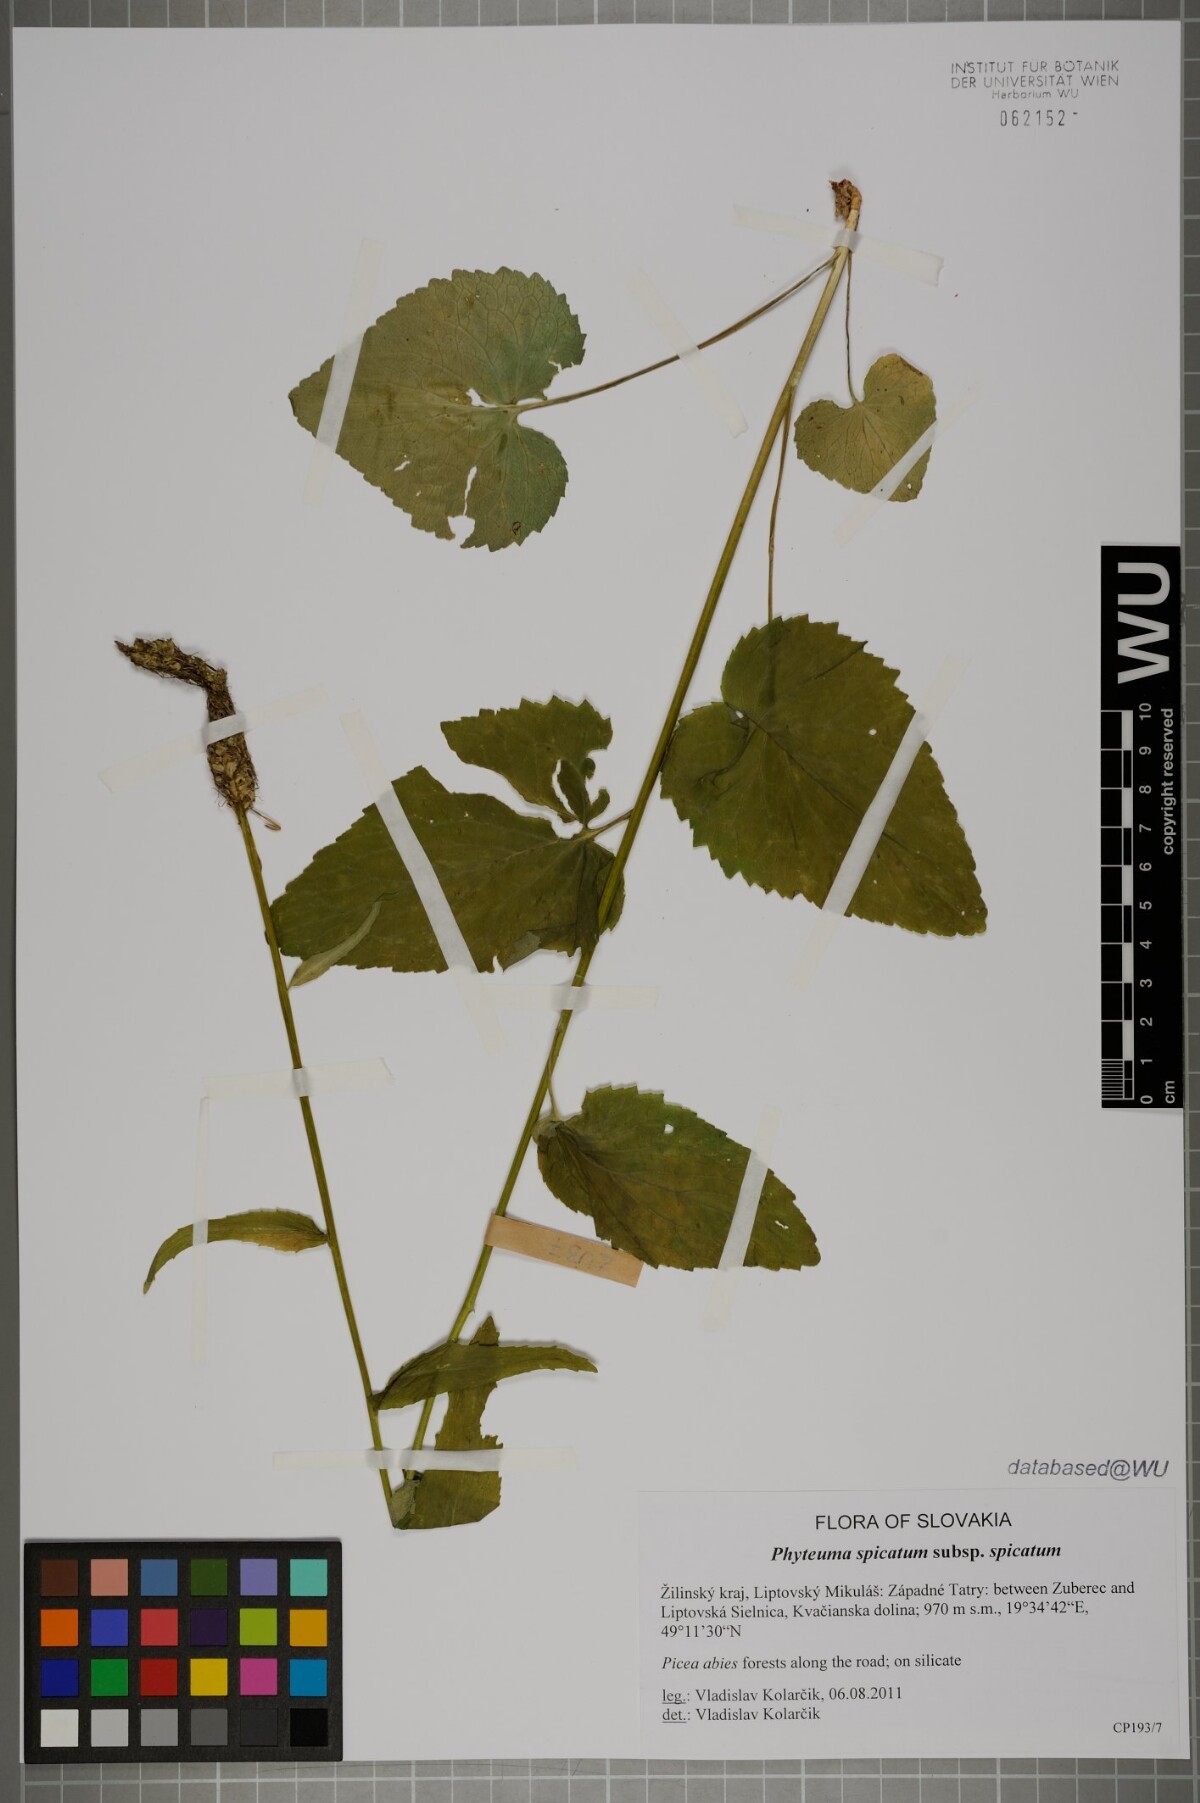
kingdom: Plantae
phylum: Tracheophyta
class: Magnoliopsida
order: Asterales
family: Campanulaceae
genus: Phyteuma
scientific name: Phyteuma spicatum
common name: Spiked rampion
